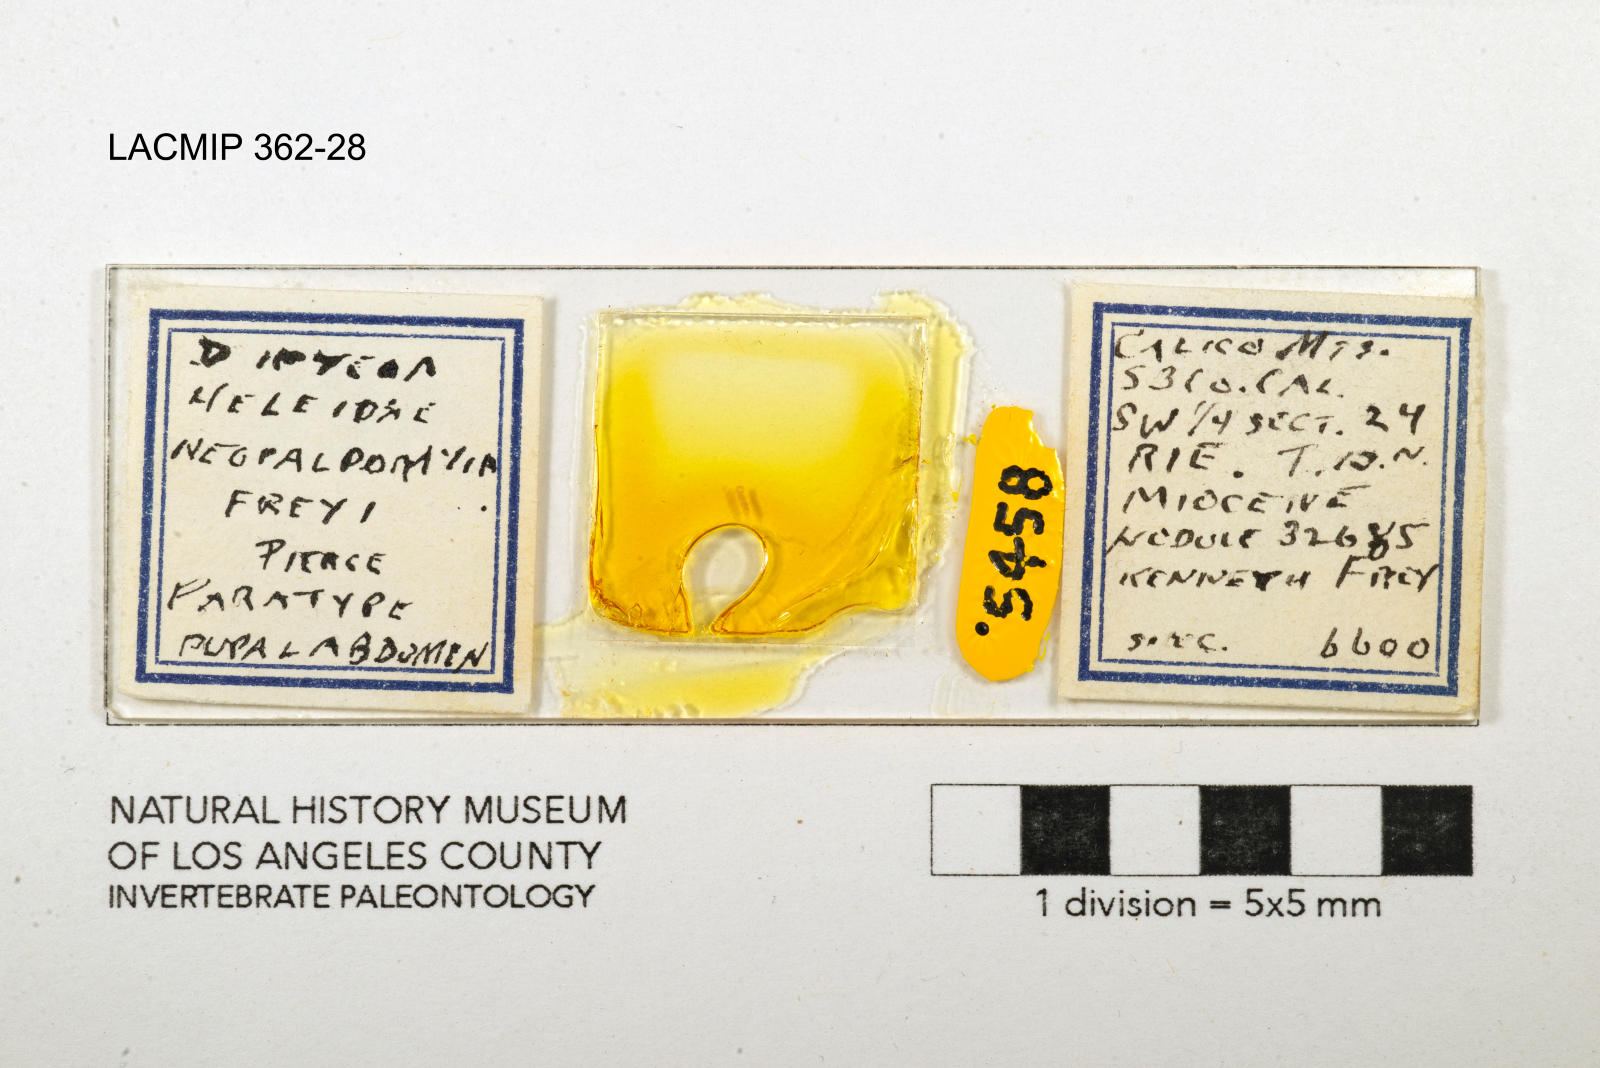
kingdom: Animalia
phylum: Arthropoda
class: Insecta
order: Diptera
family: Ceratopogonidae
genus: Palpomyia
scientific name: Palpomyia freyi
